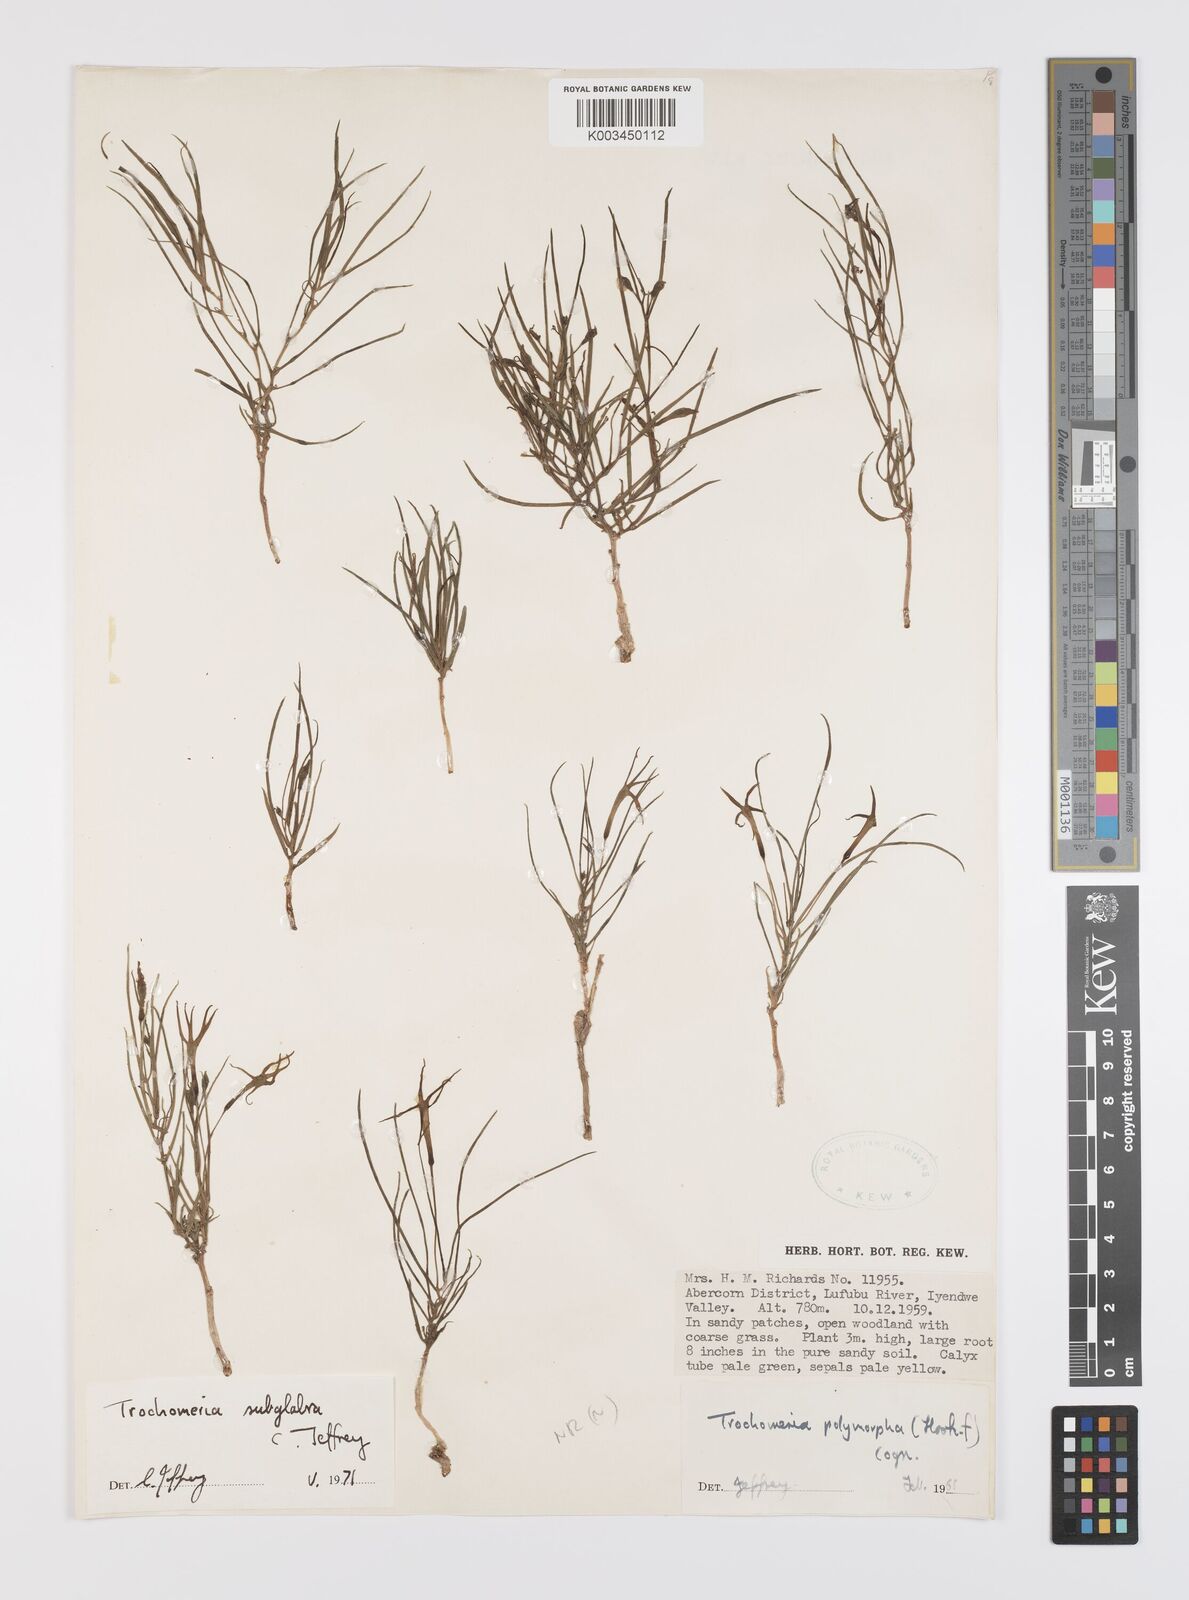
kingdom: Plantae
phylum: Tracheophyta
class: Magnoliopsida
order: Cucurbitales
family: Cucurbitaceae
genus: Trochomeria
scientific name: Trochomeria subglabra
